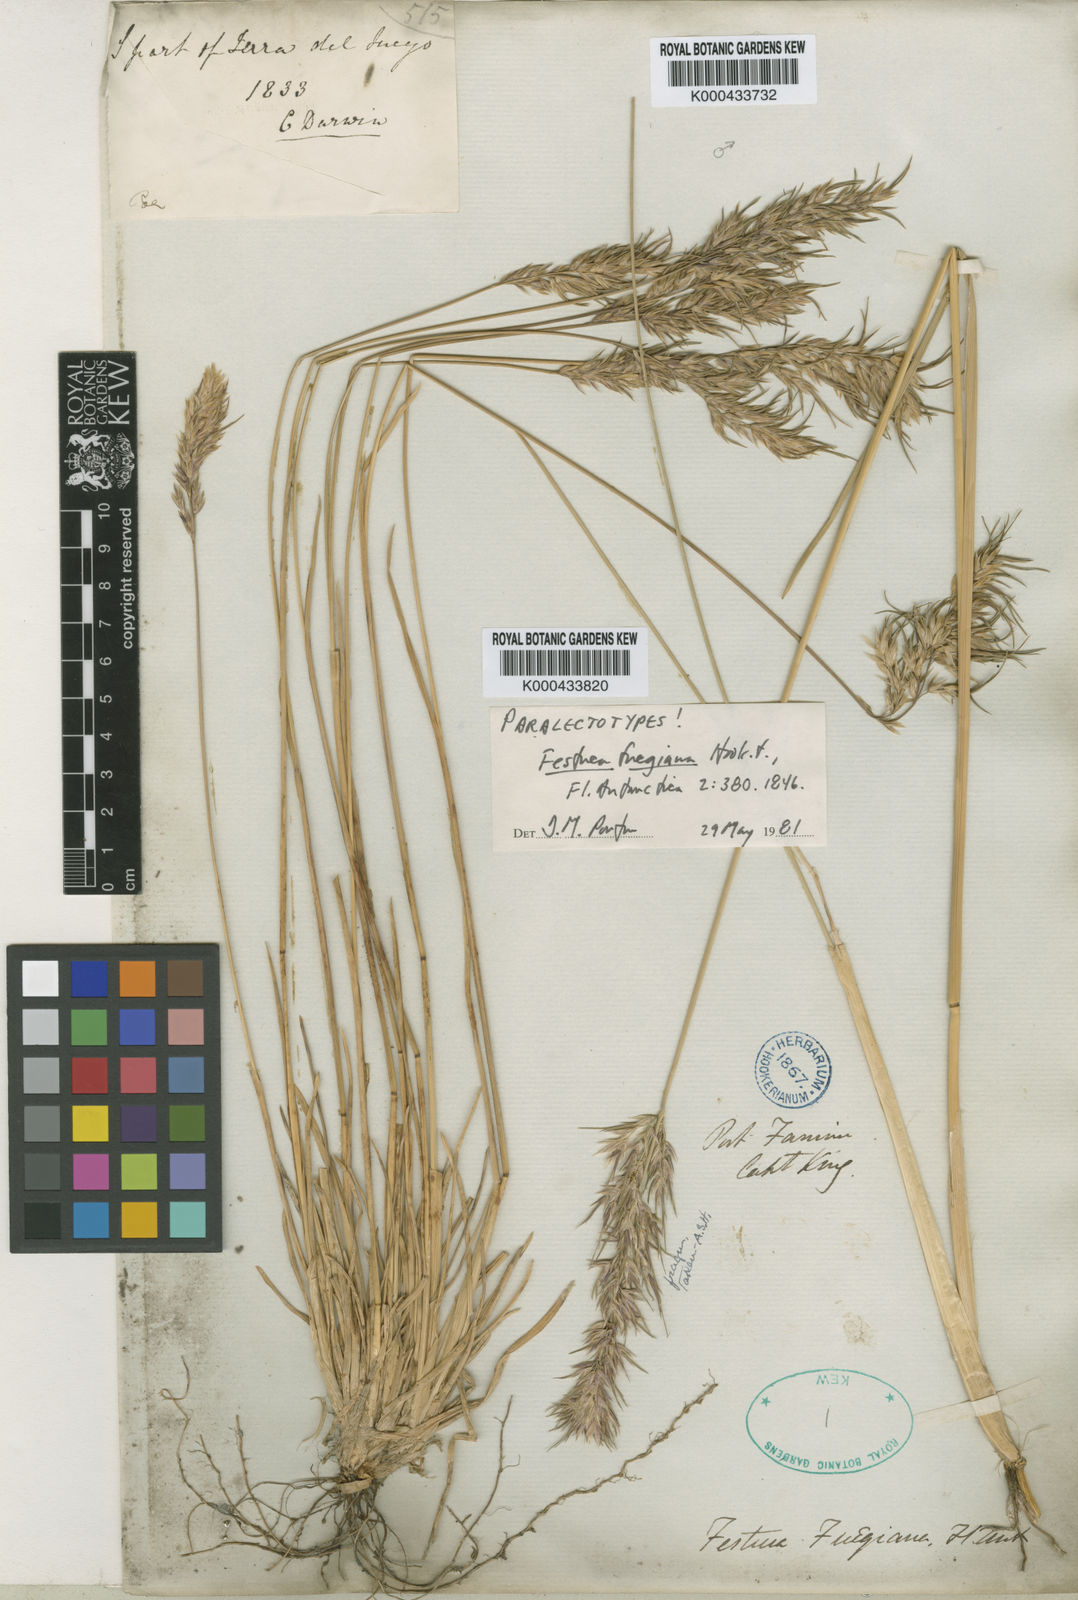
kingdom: Plantae
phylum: Tracheophyta
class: Liliopsida
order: Poales
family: Poaceae
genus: Poa
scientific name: Poa alopecurus
